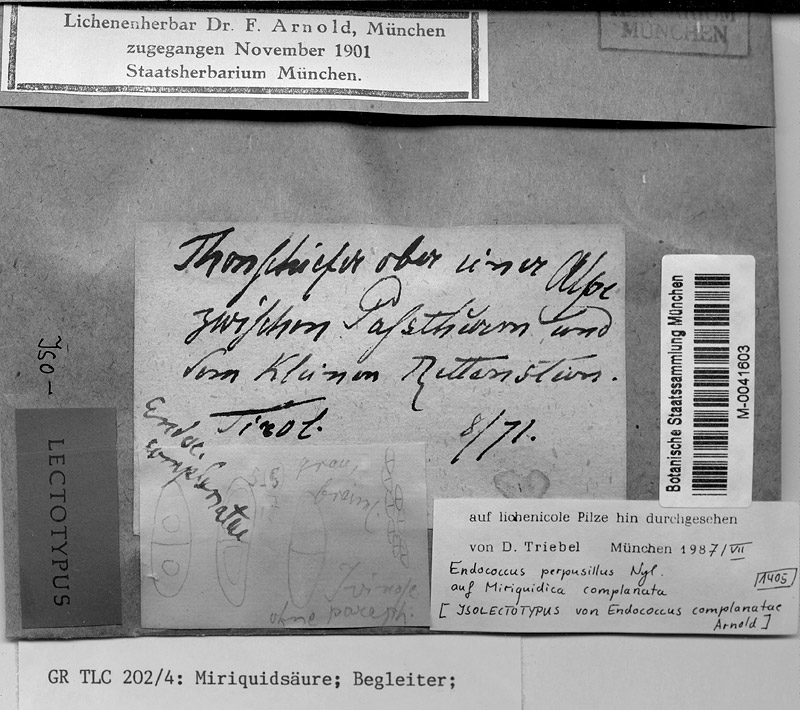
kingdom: Fungi
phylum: Ascomycota
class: Lecanoromycetes
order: Lecanorales
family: Lecanoraceae
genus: Miriquidica
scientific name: Miriquidica complanata
